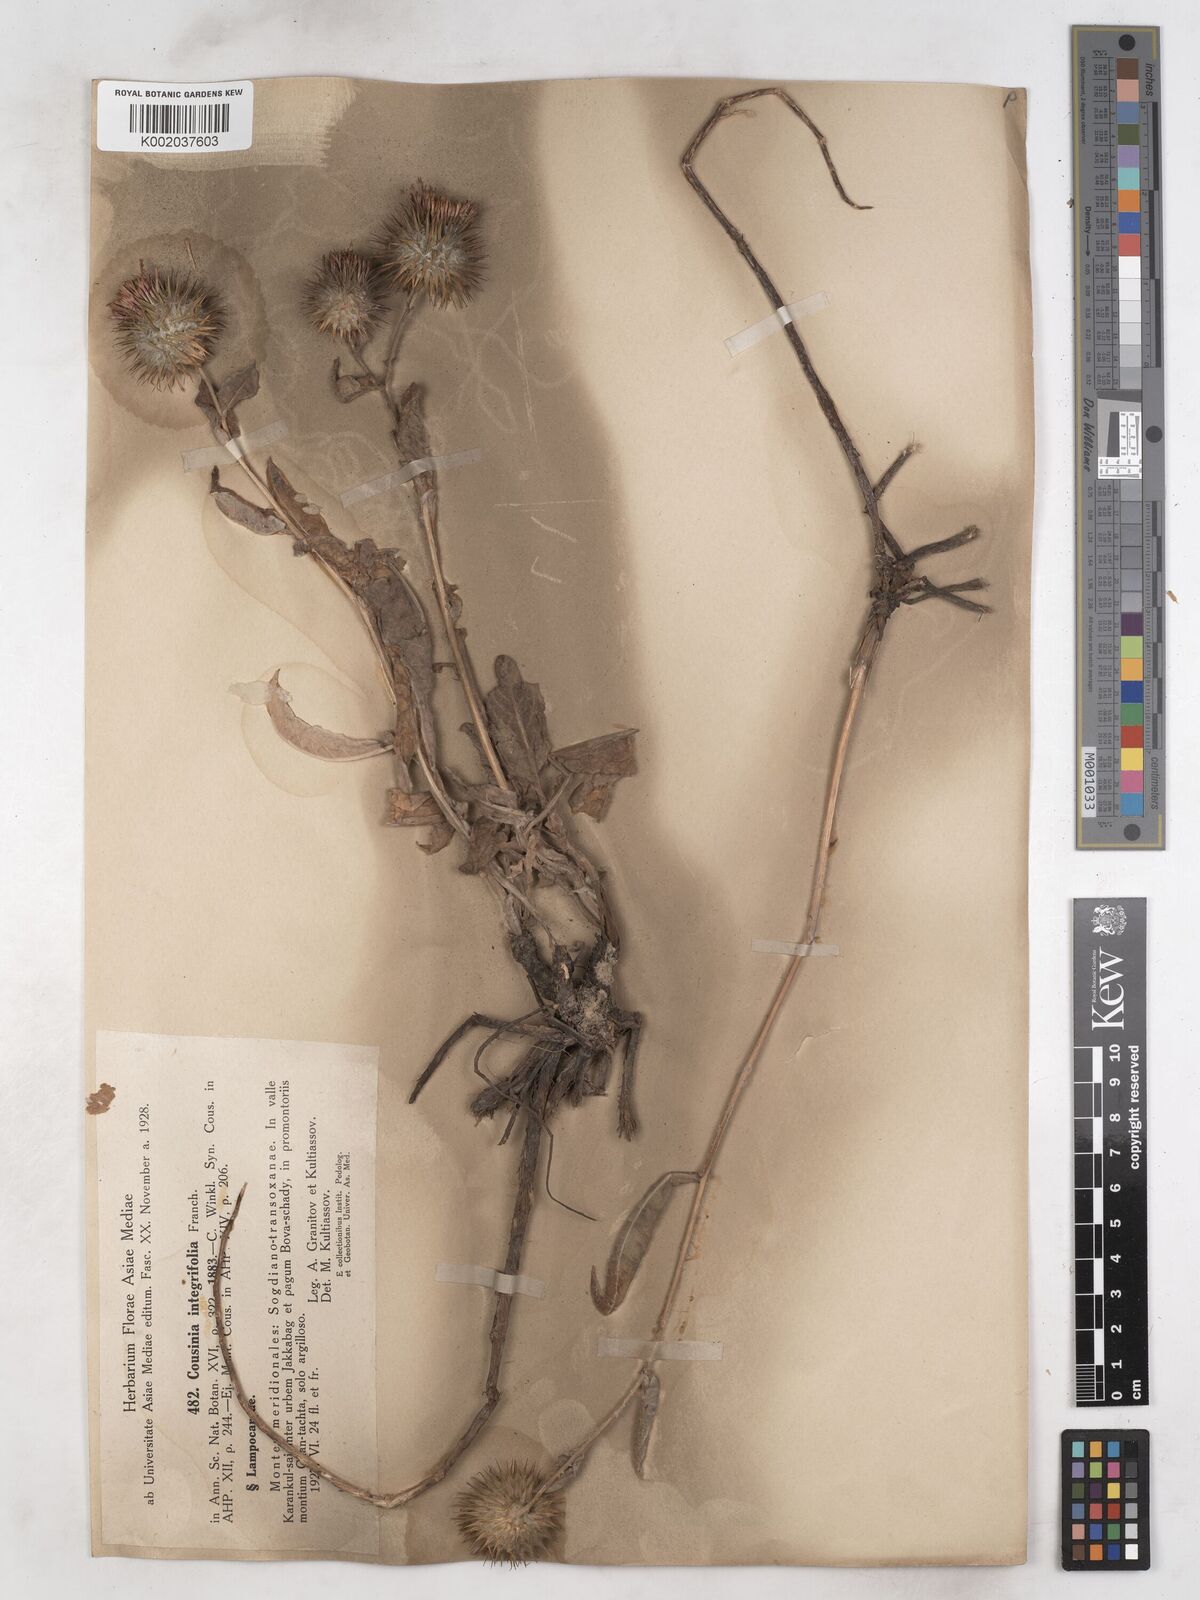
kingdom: Plantae
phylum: Tracheophyta
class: Magnoliopsida
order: Asterales
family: Asteraceae
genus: Cousinia
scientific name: Cousinia integrifolia
